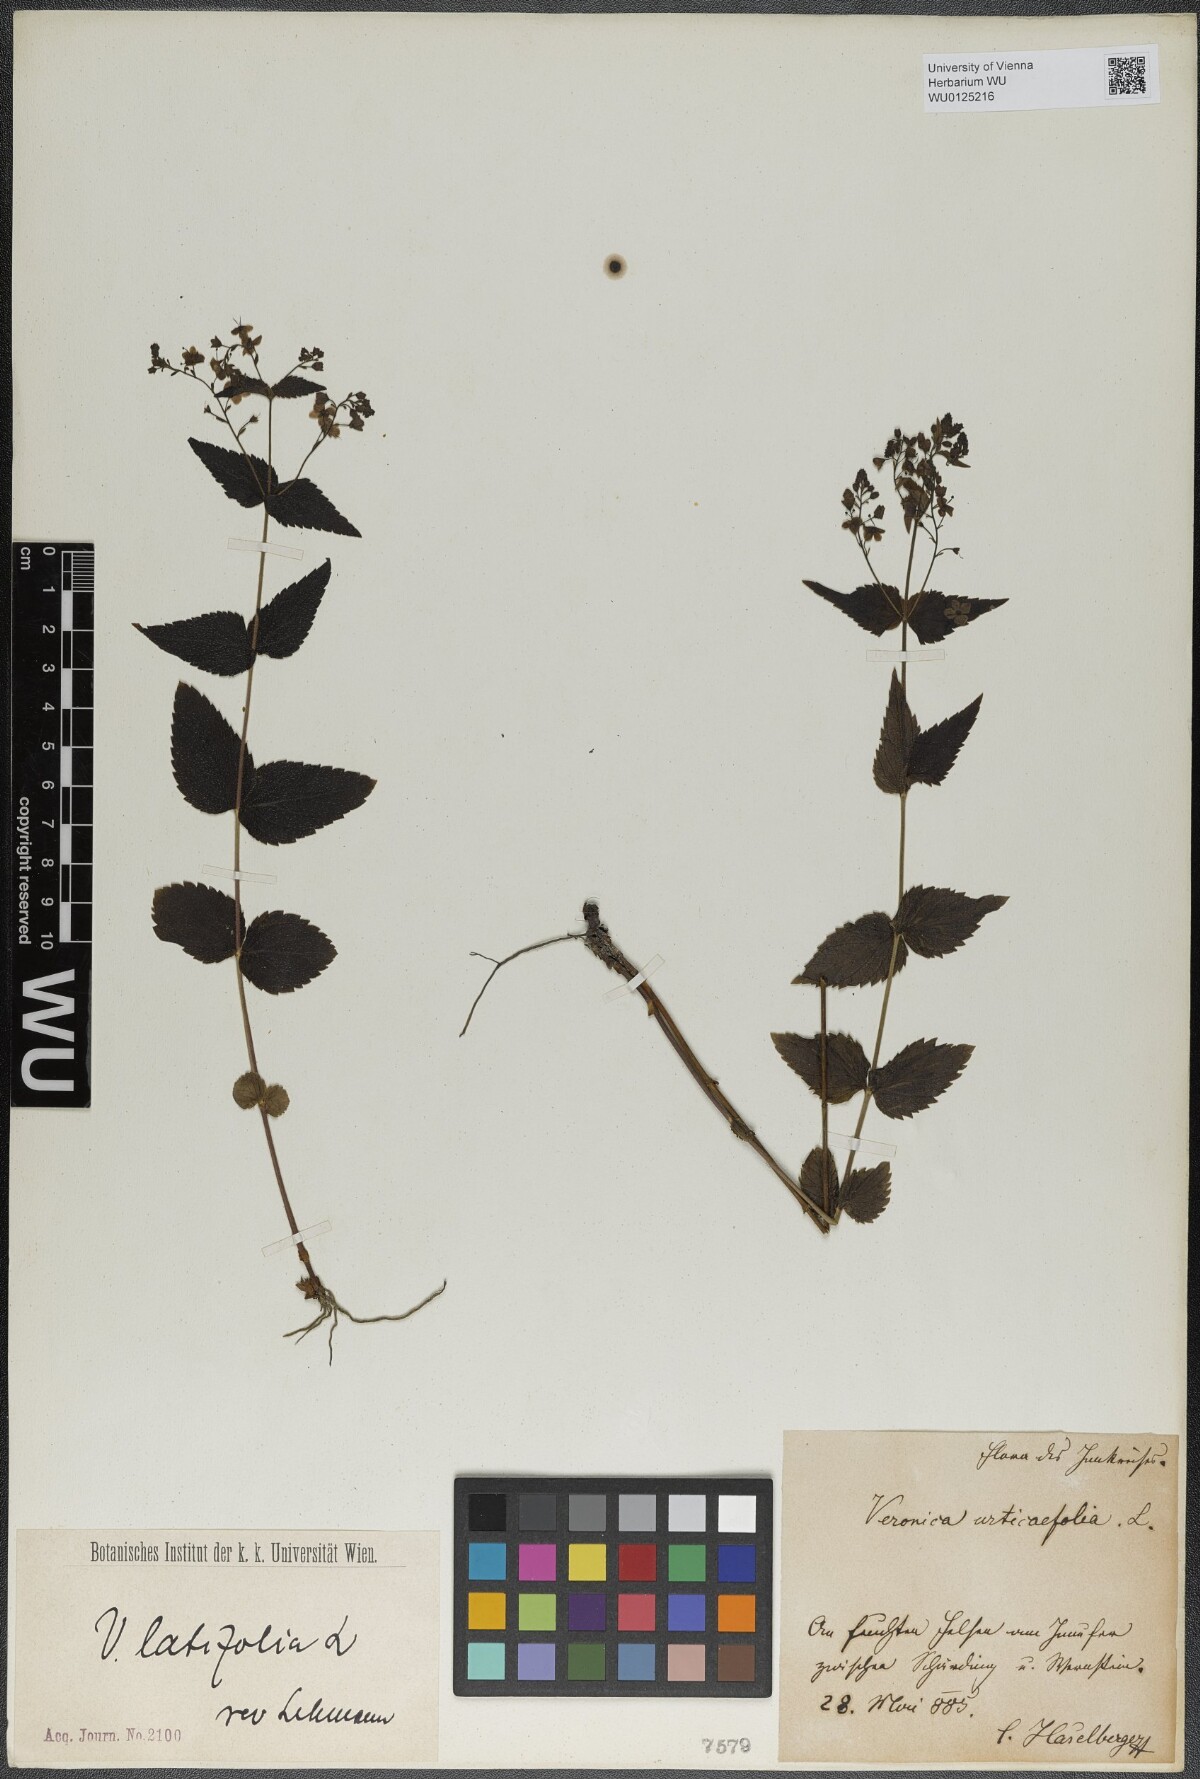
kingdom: Plantae
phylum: Tracheophyta
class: Magnoliopsida
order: Lamiales
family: Plantaginaceae
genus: Veronica
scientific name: Veronica urticifolia
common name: Nettle-leaf speedwell
